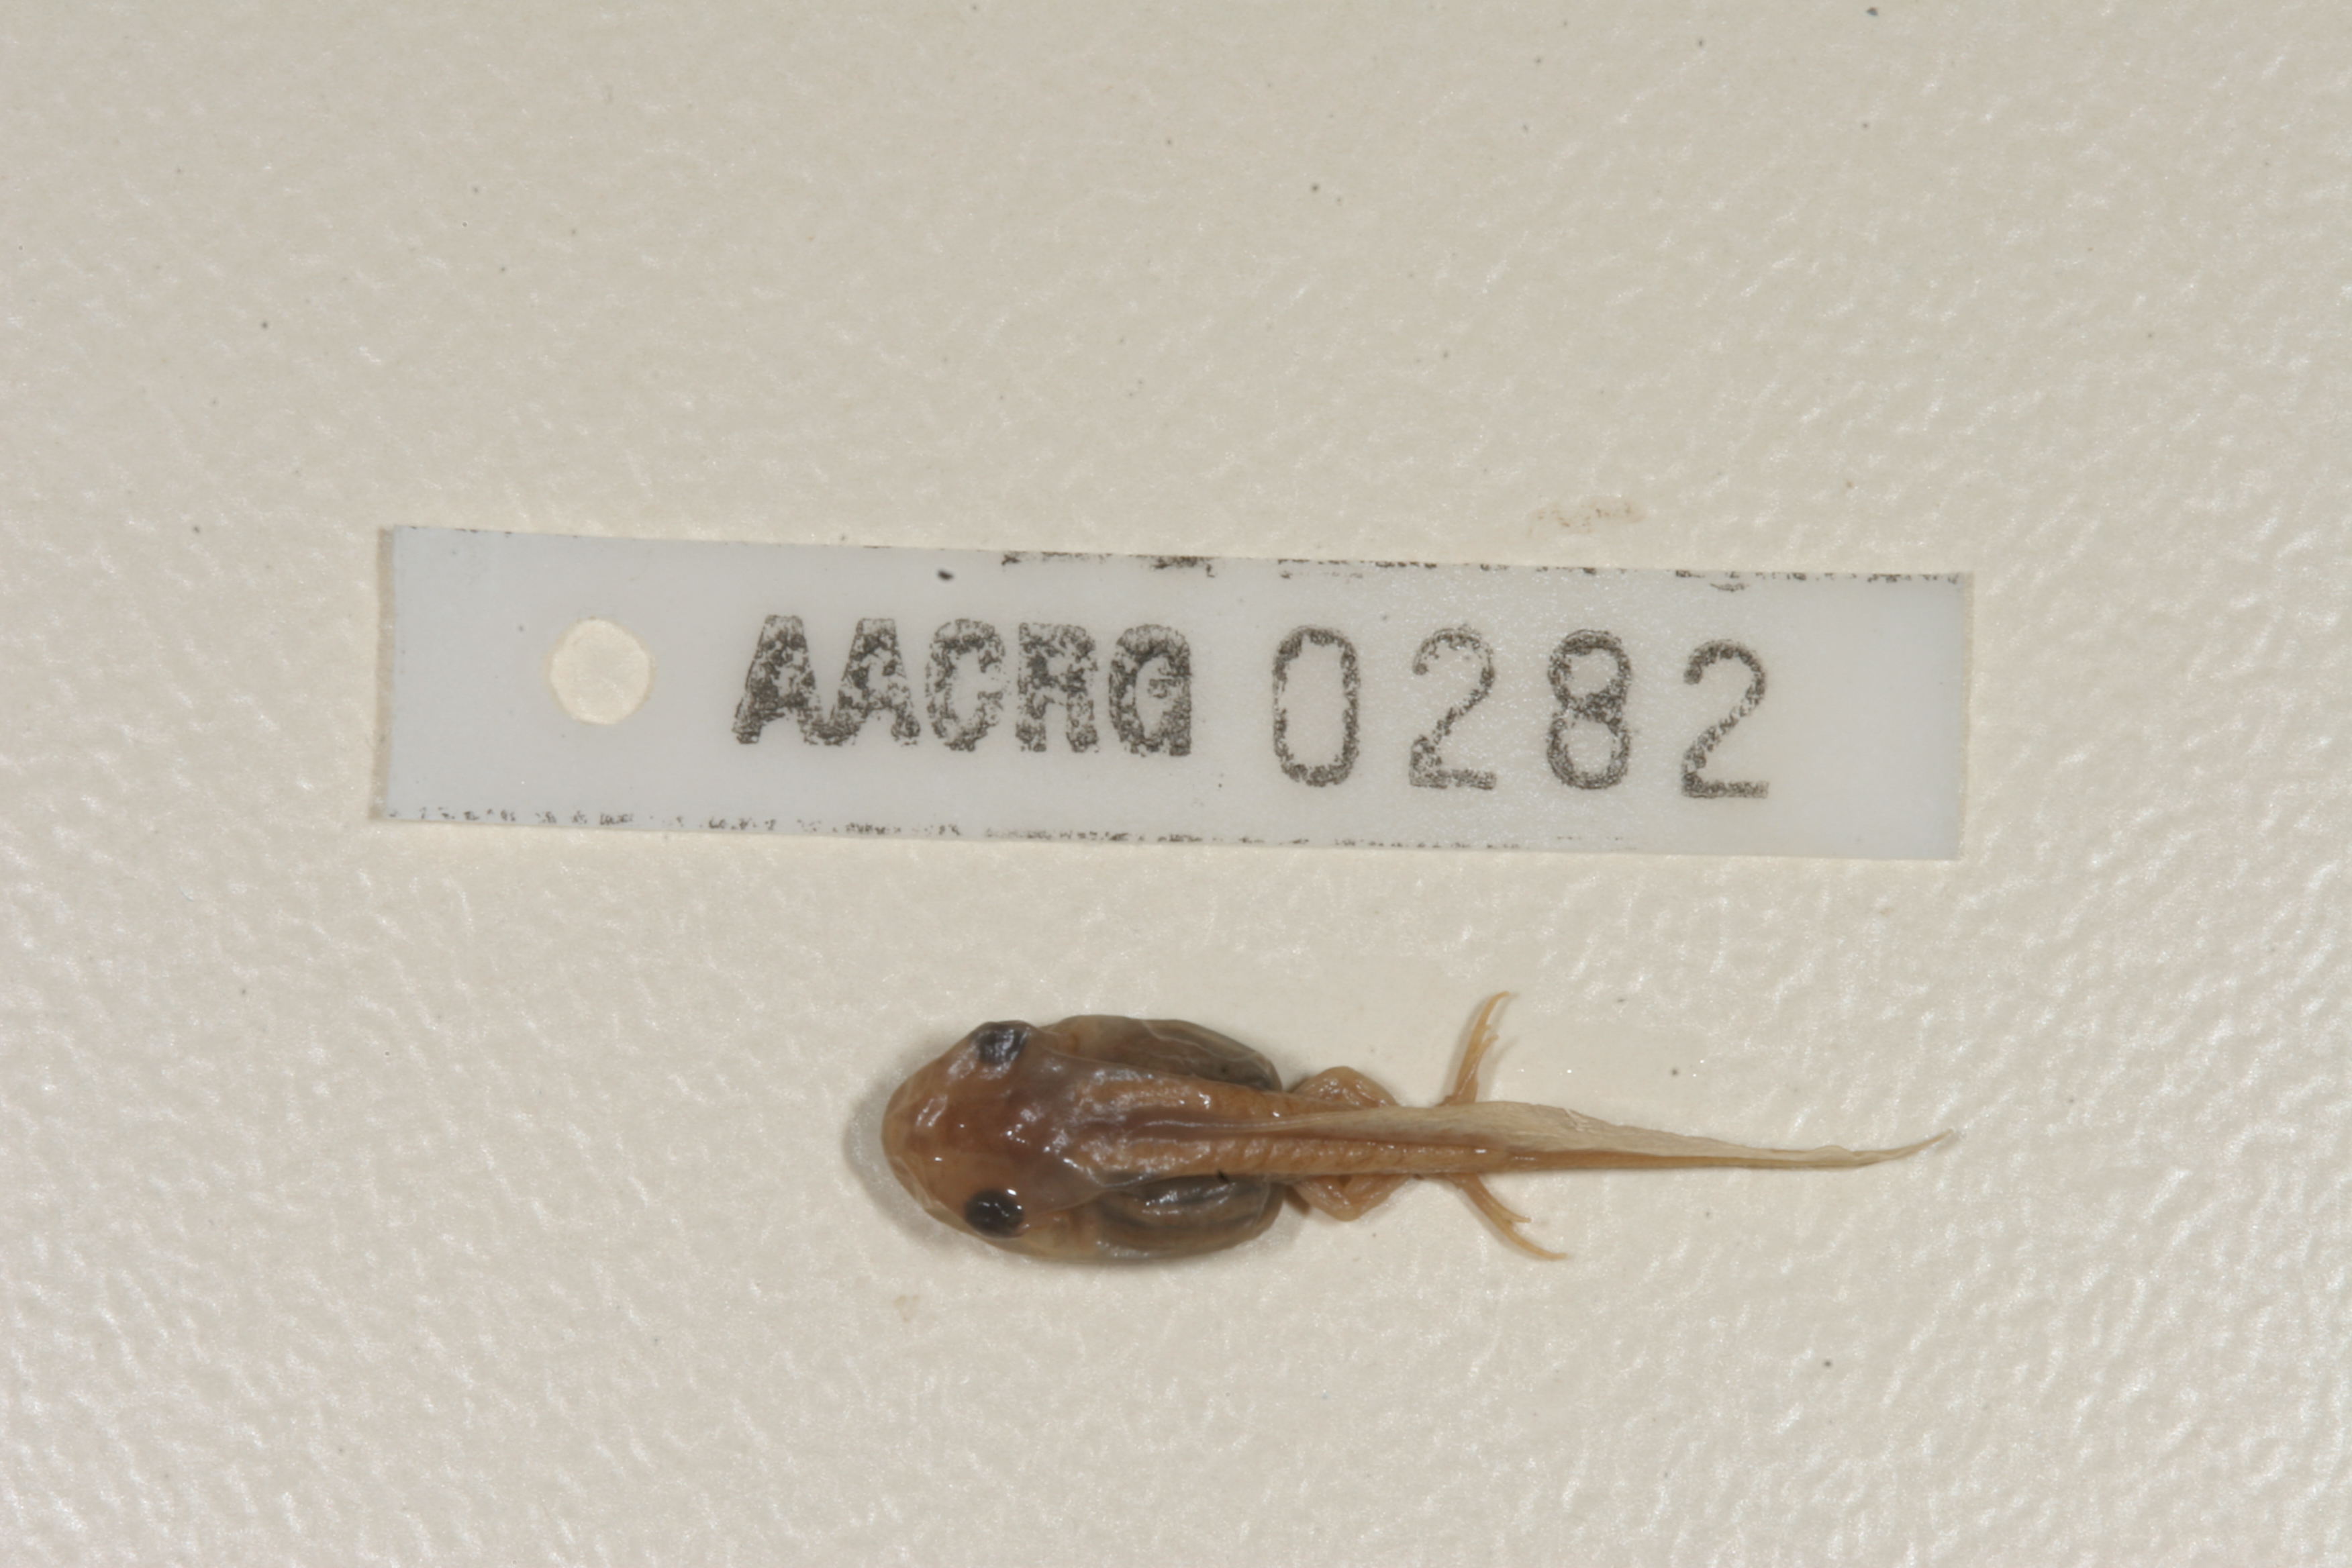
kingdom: Animalia
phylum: Chordata
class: Amphibia
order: Anura
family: Pyxicephalidae
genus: Cacosternum
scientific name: Cacosternum boettgeri
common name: Boettger's frog
